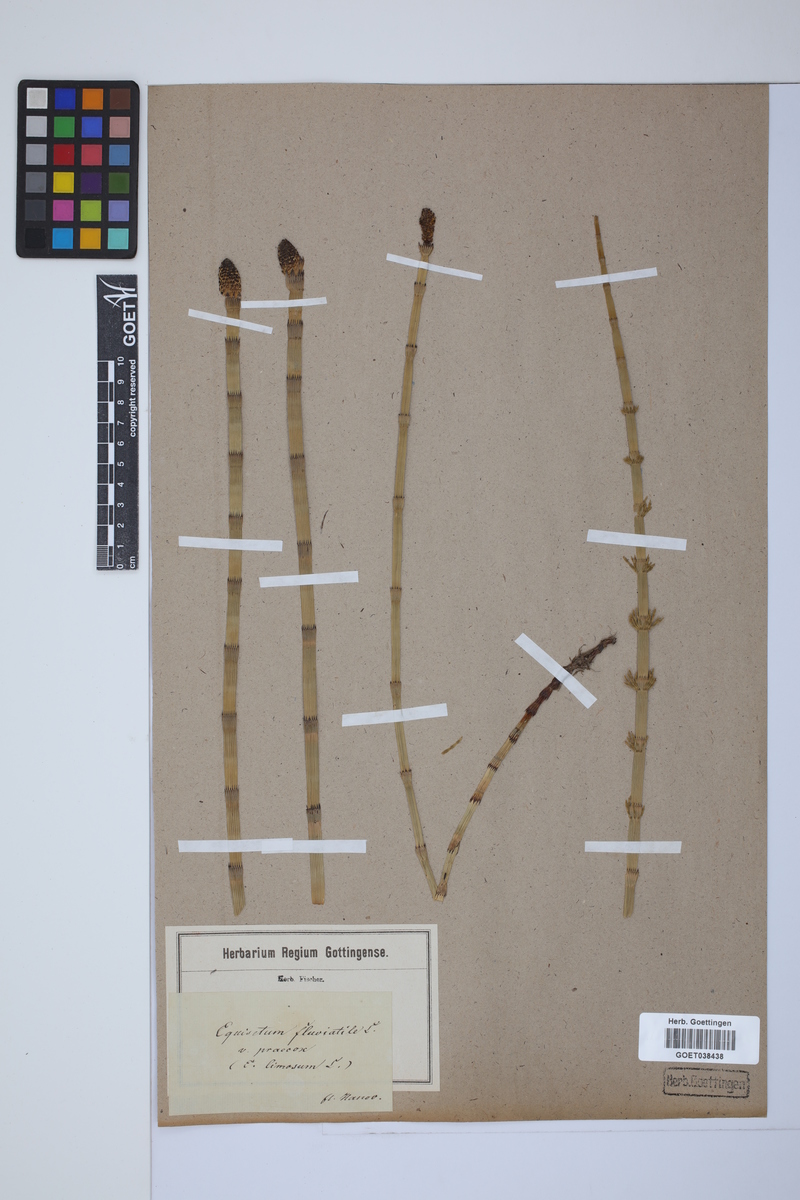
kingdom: Plantae
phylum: Tracheophyta
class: Polypodiopsida
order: Equisetales
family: Equisetaceae
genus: Equisetum
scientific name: Equisetum fluviatile
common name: Water horsetail
